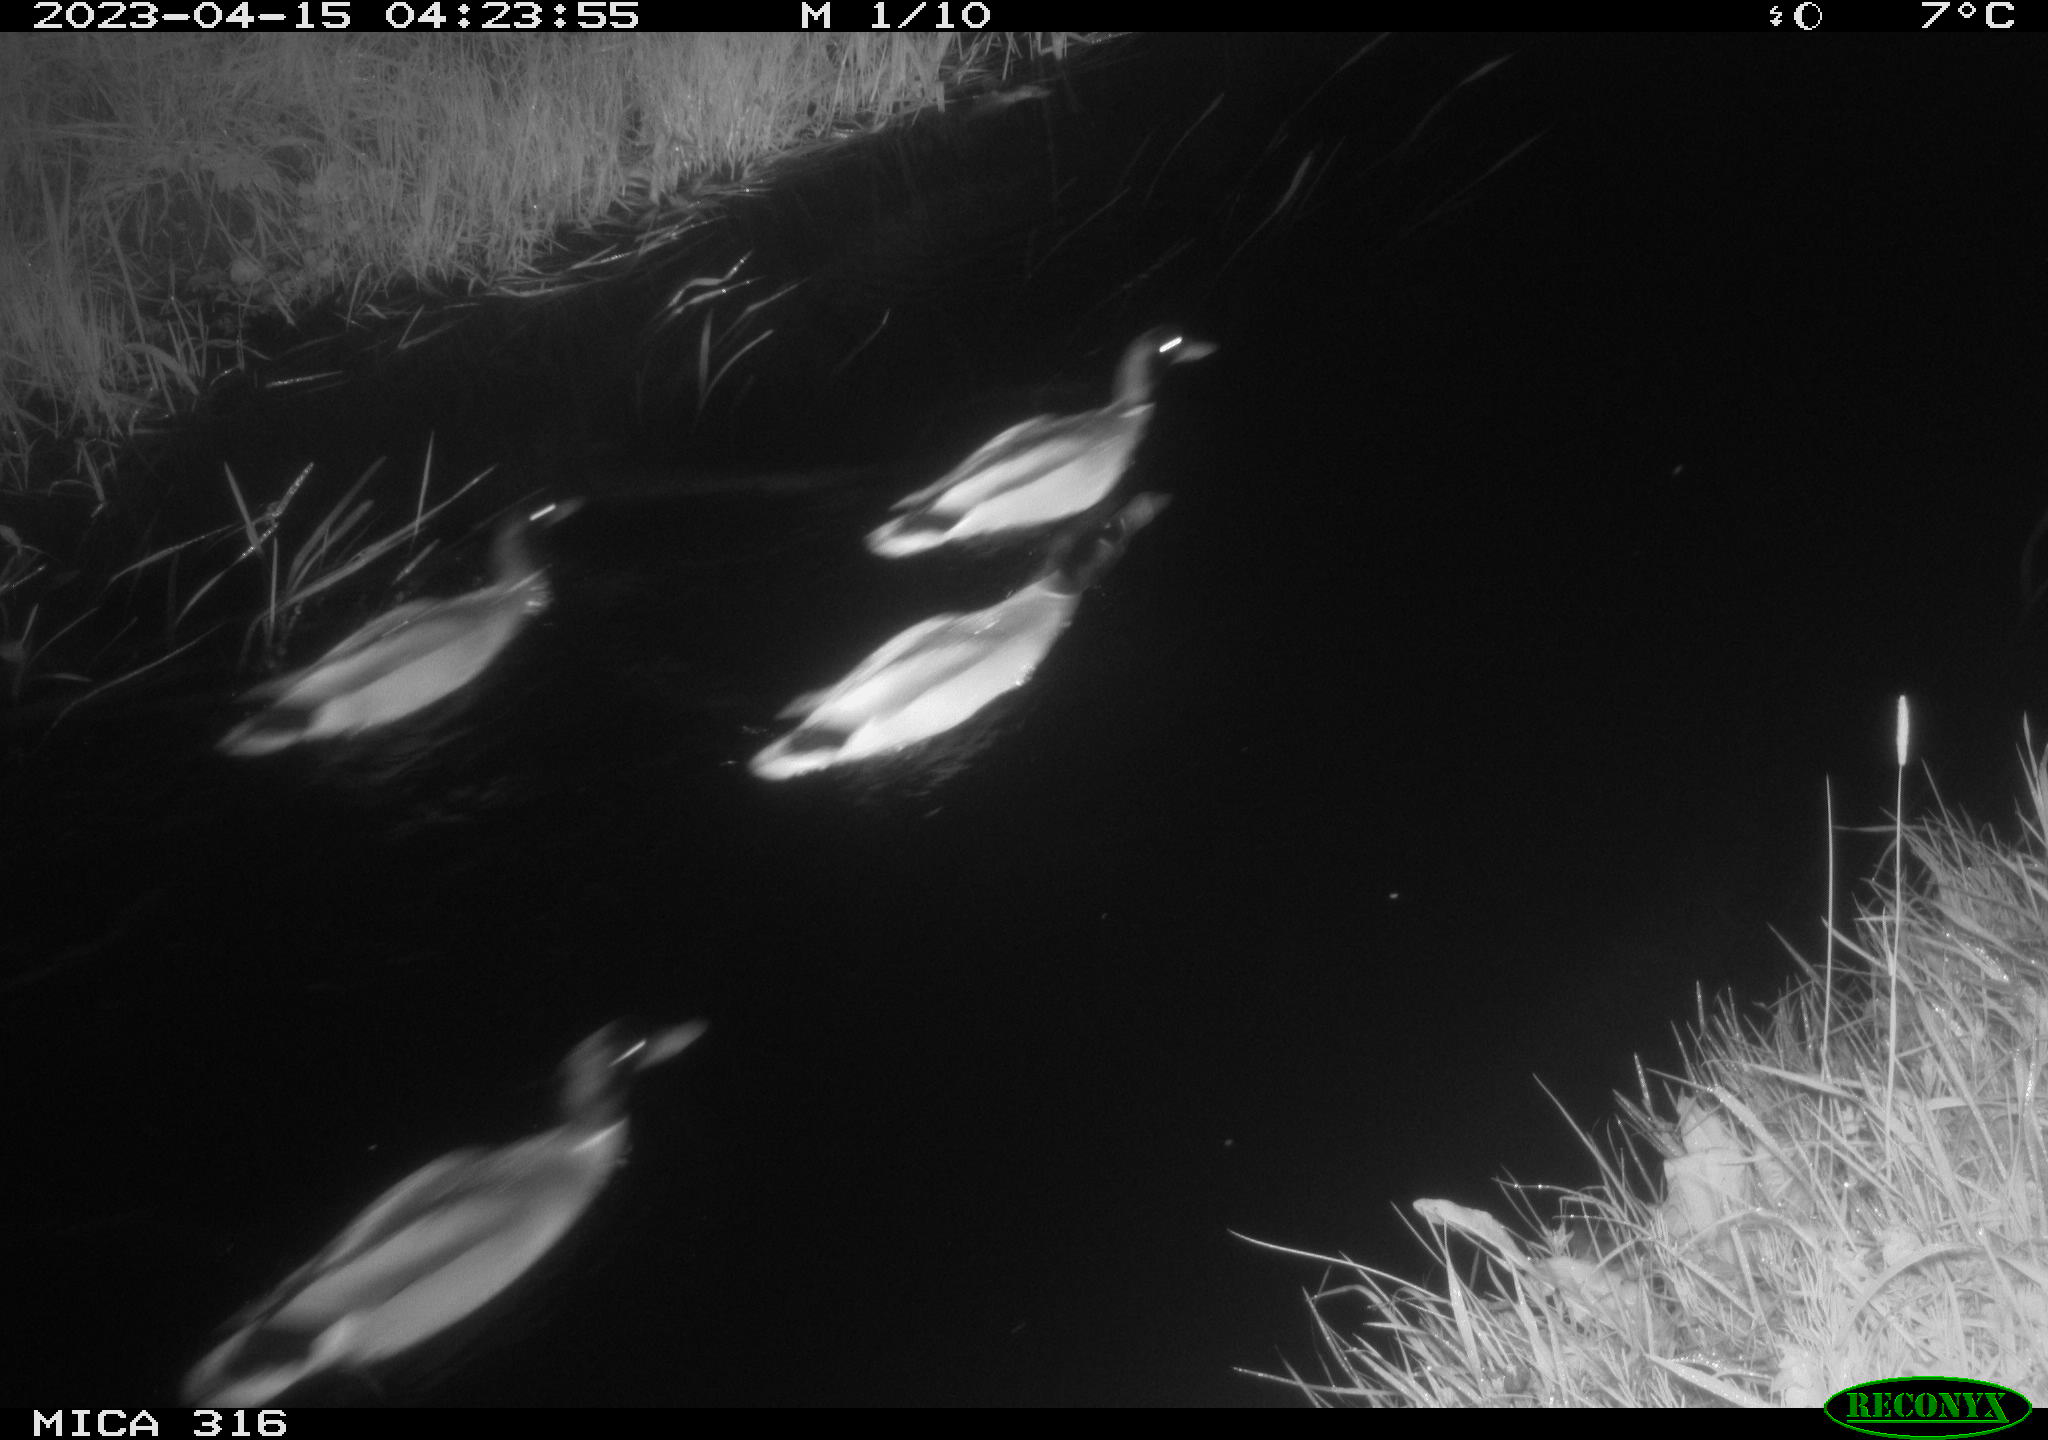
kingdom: Animalia
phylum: Chordata
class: Aves
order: Anseriformes
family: Anatidae
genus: Anas
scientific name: Anas
